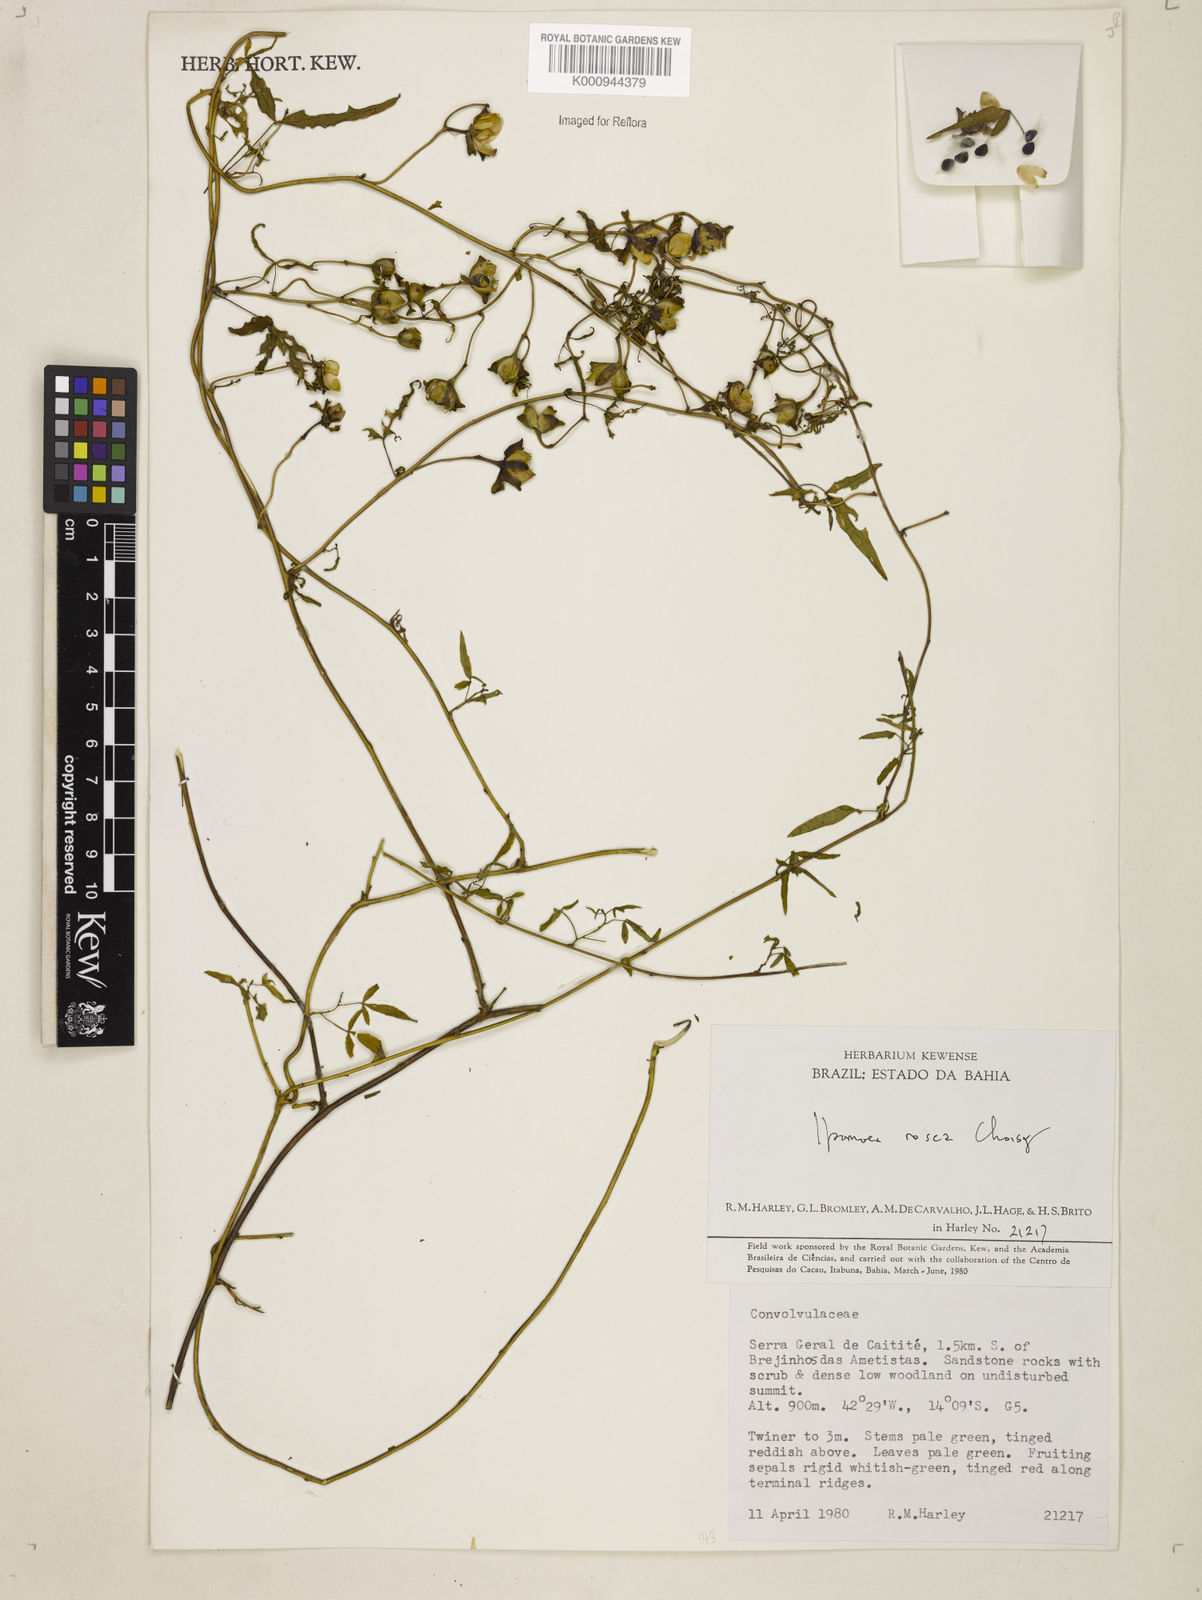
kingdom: Plantae
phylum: Tracheophyta
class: Magnoliopsida
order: Solanales
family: Convolvulaceae
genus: Ipomoea
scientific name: Ipomoea rosea
